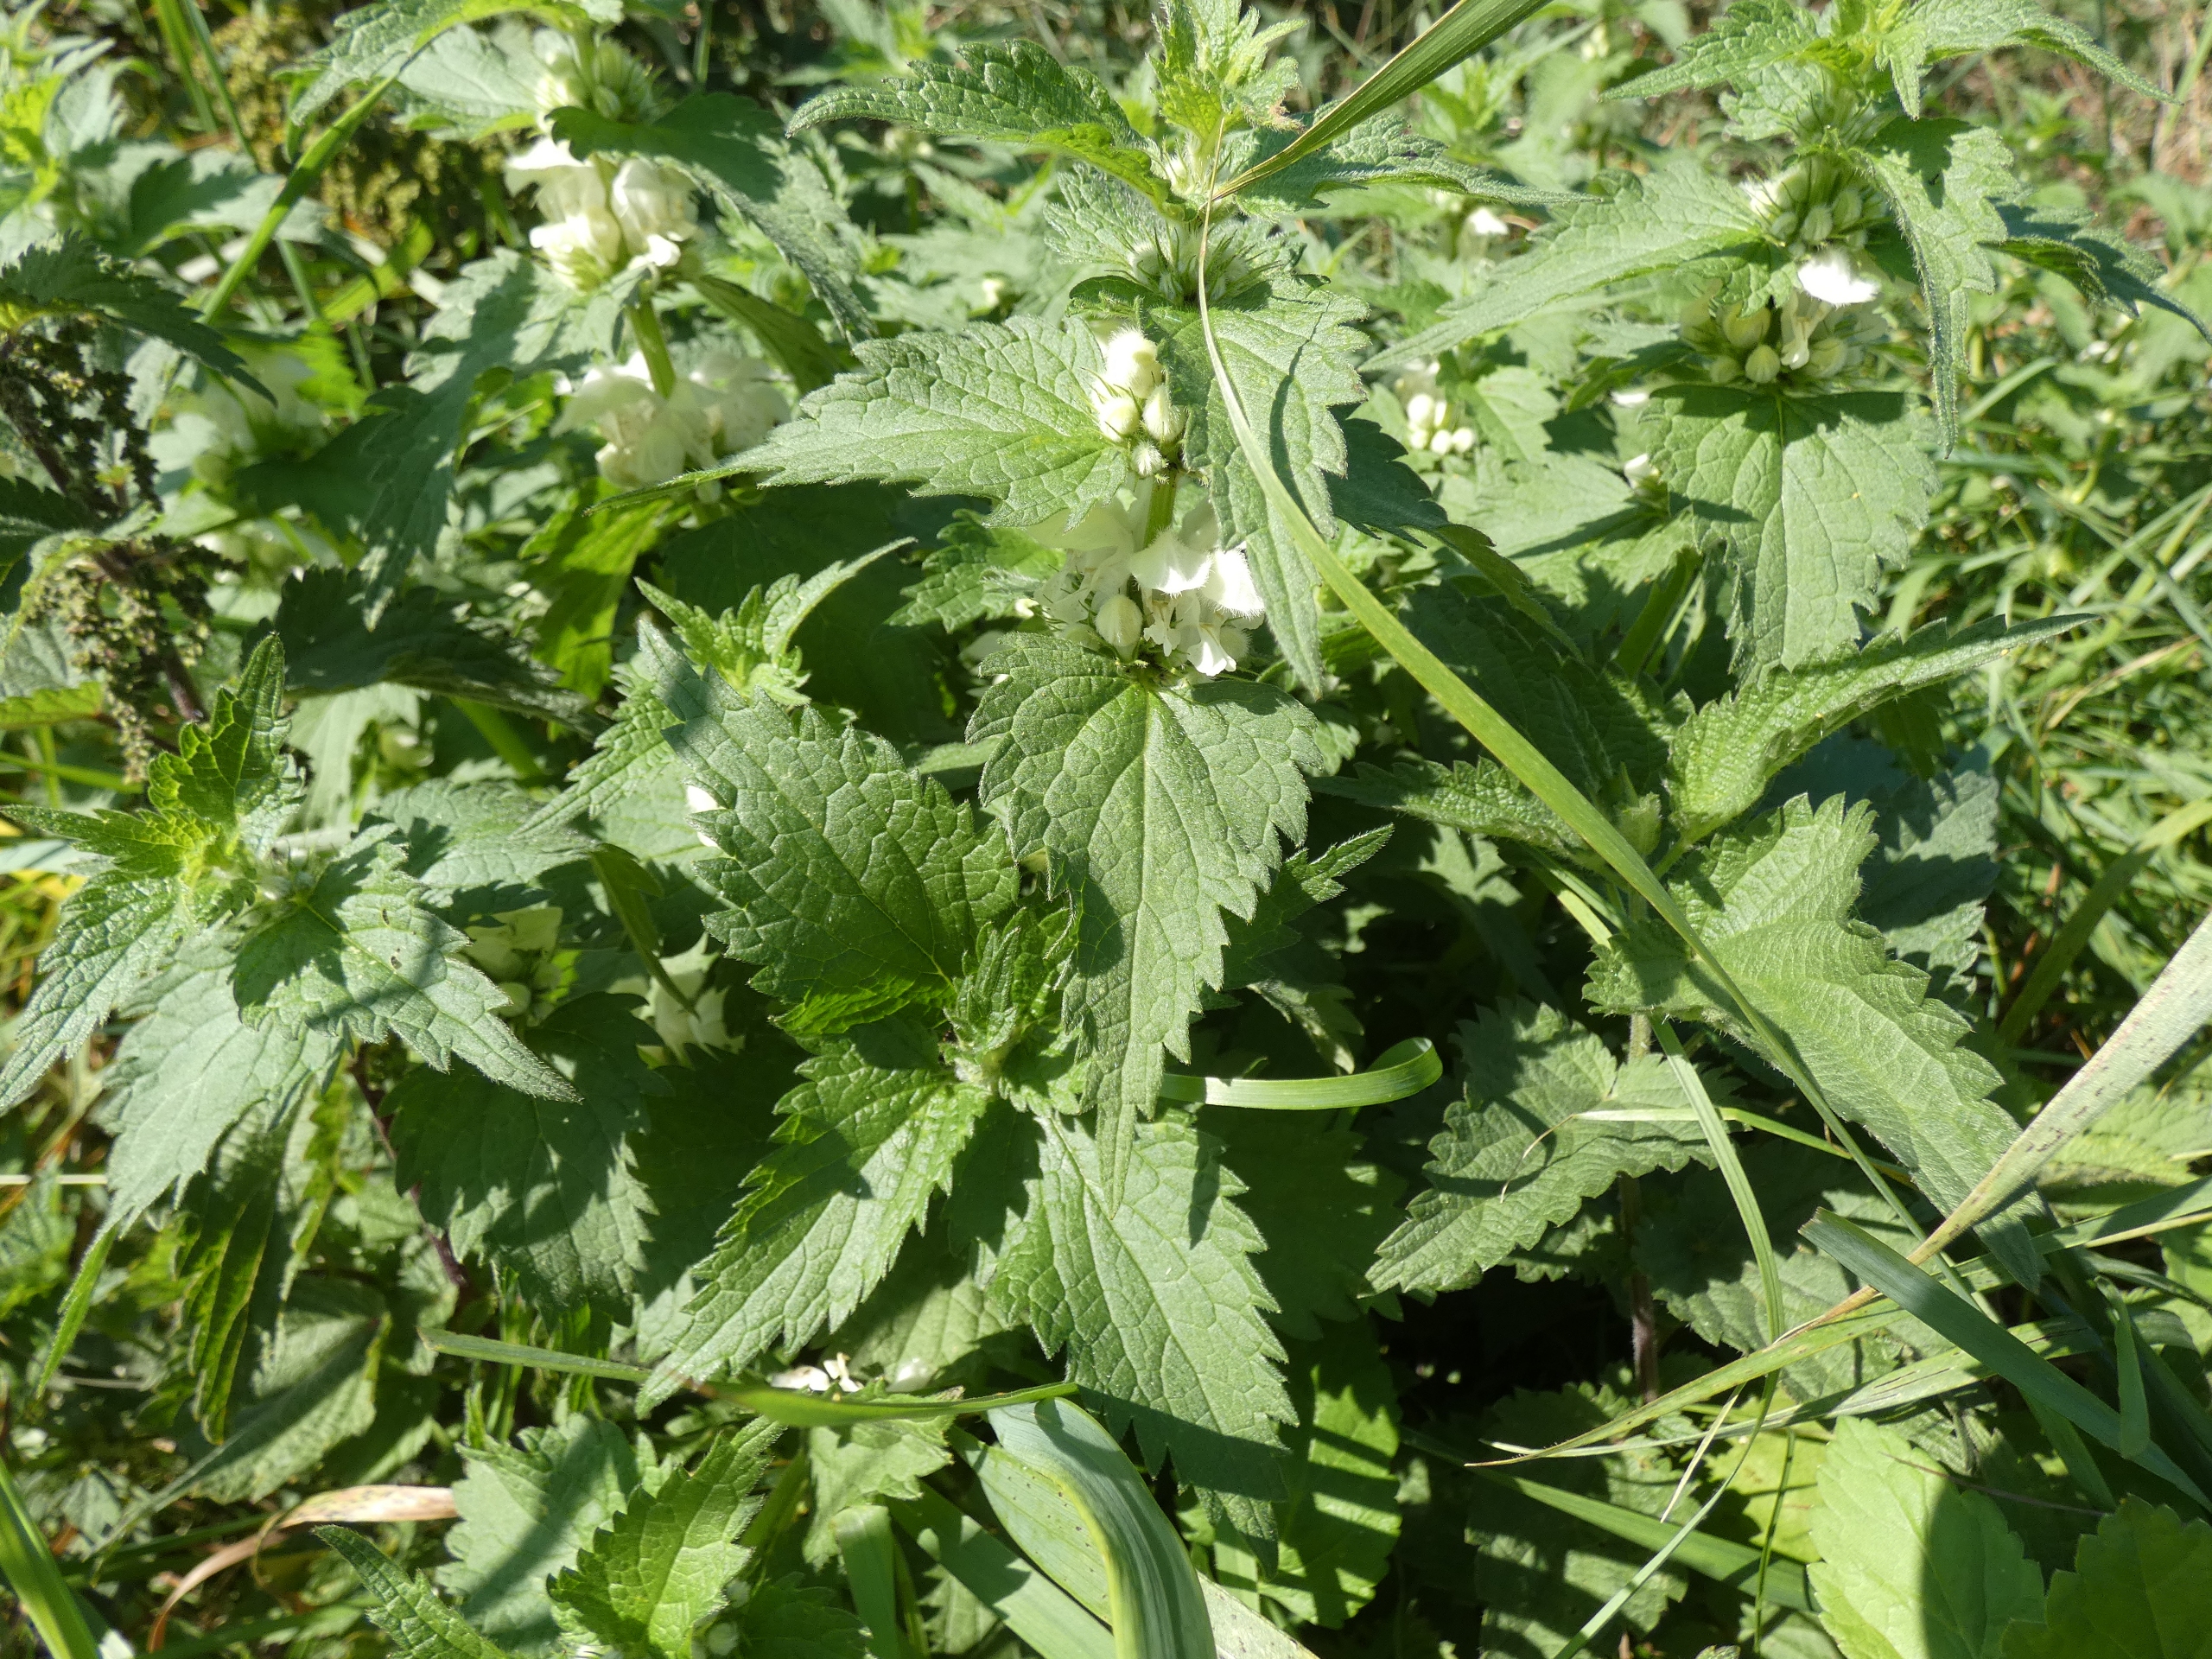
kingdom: Plantae
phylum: Tracheophyta
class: Magnoliopsida
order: Lamiales
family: Lamiaceae
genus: Lamium
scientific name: Lamium album
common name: Døvnælde
